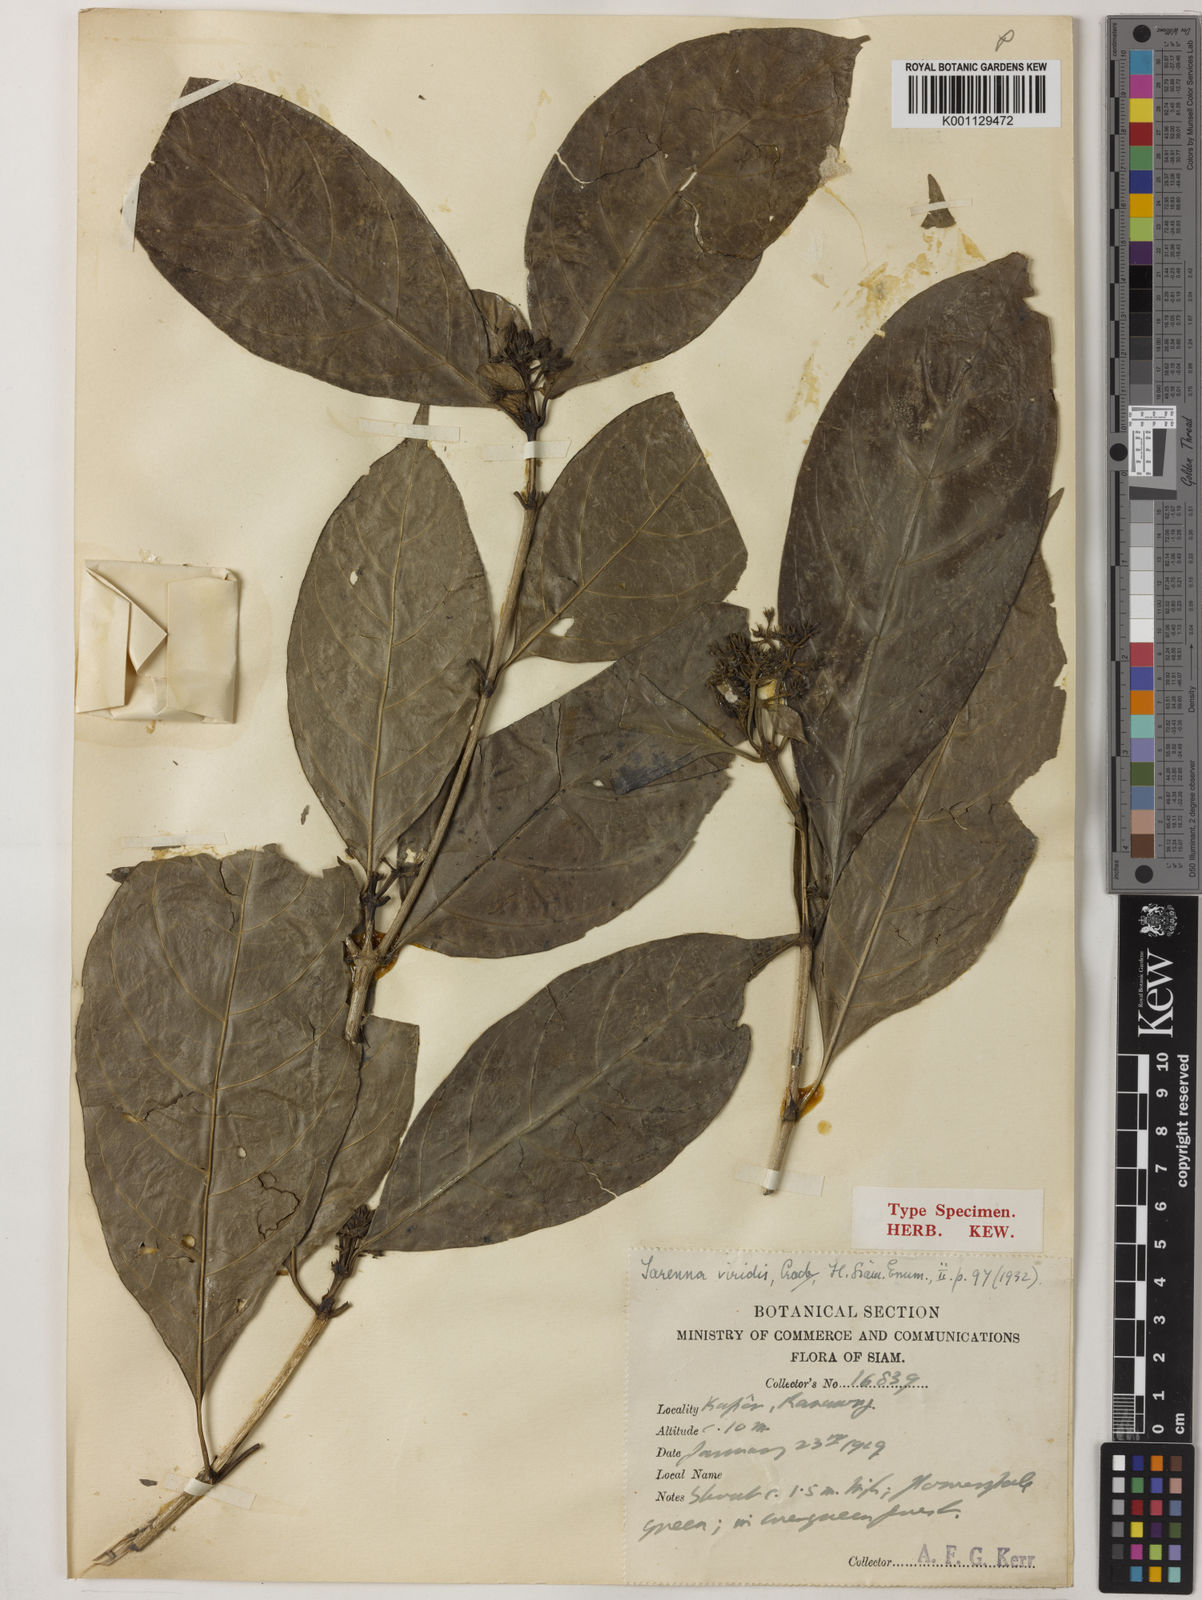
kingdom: Plantae
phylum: Tracheophyta
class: Magnoliopsida
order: Gentianales
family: Rubiaceae
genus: Tarenna
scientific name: Tarenna puberula
